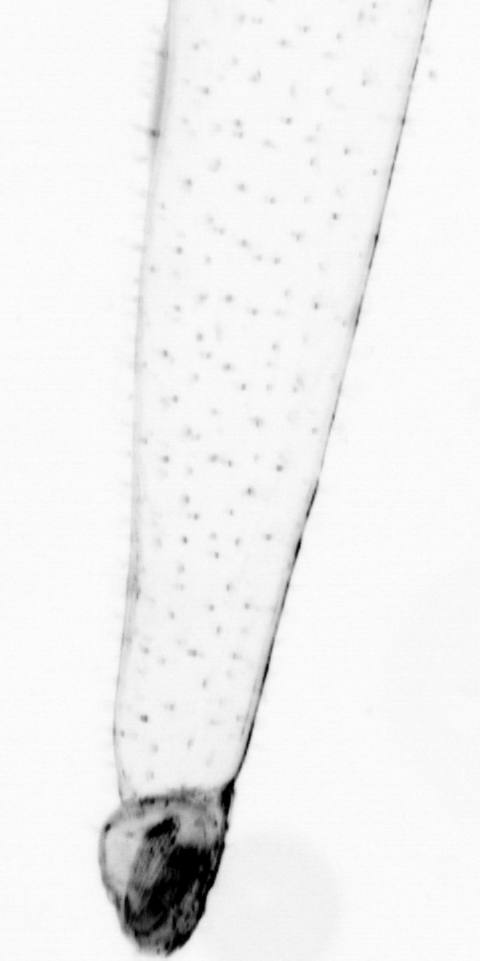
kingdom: Animalia
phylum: Chaetognatha
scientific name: Chaetognatha
